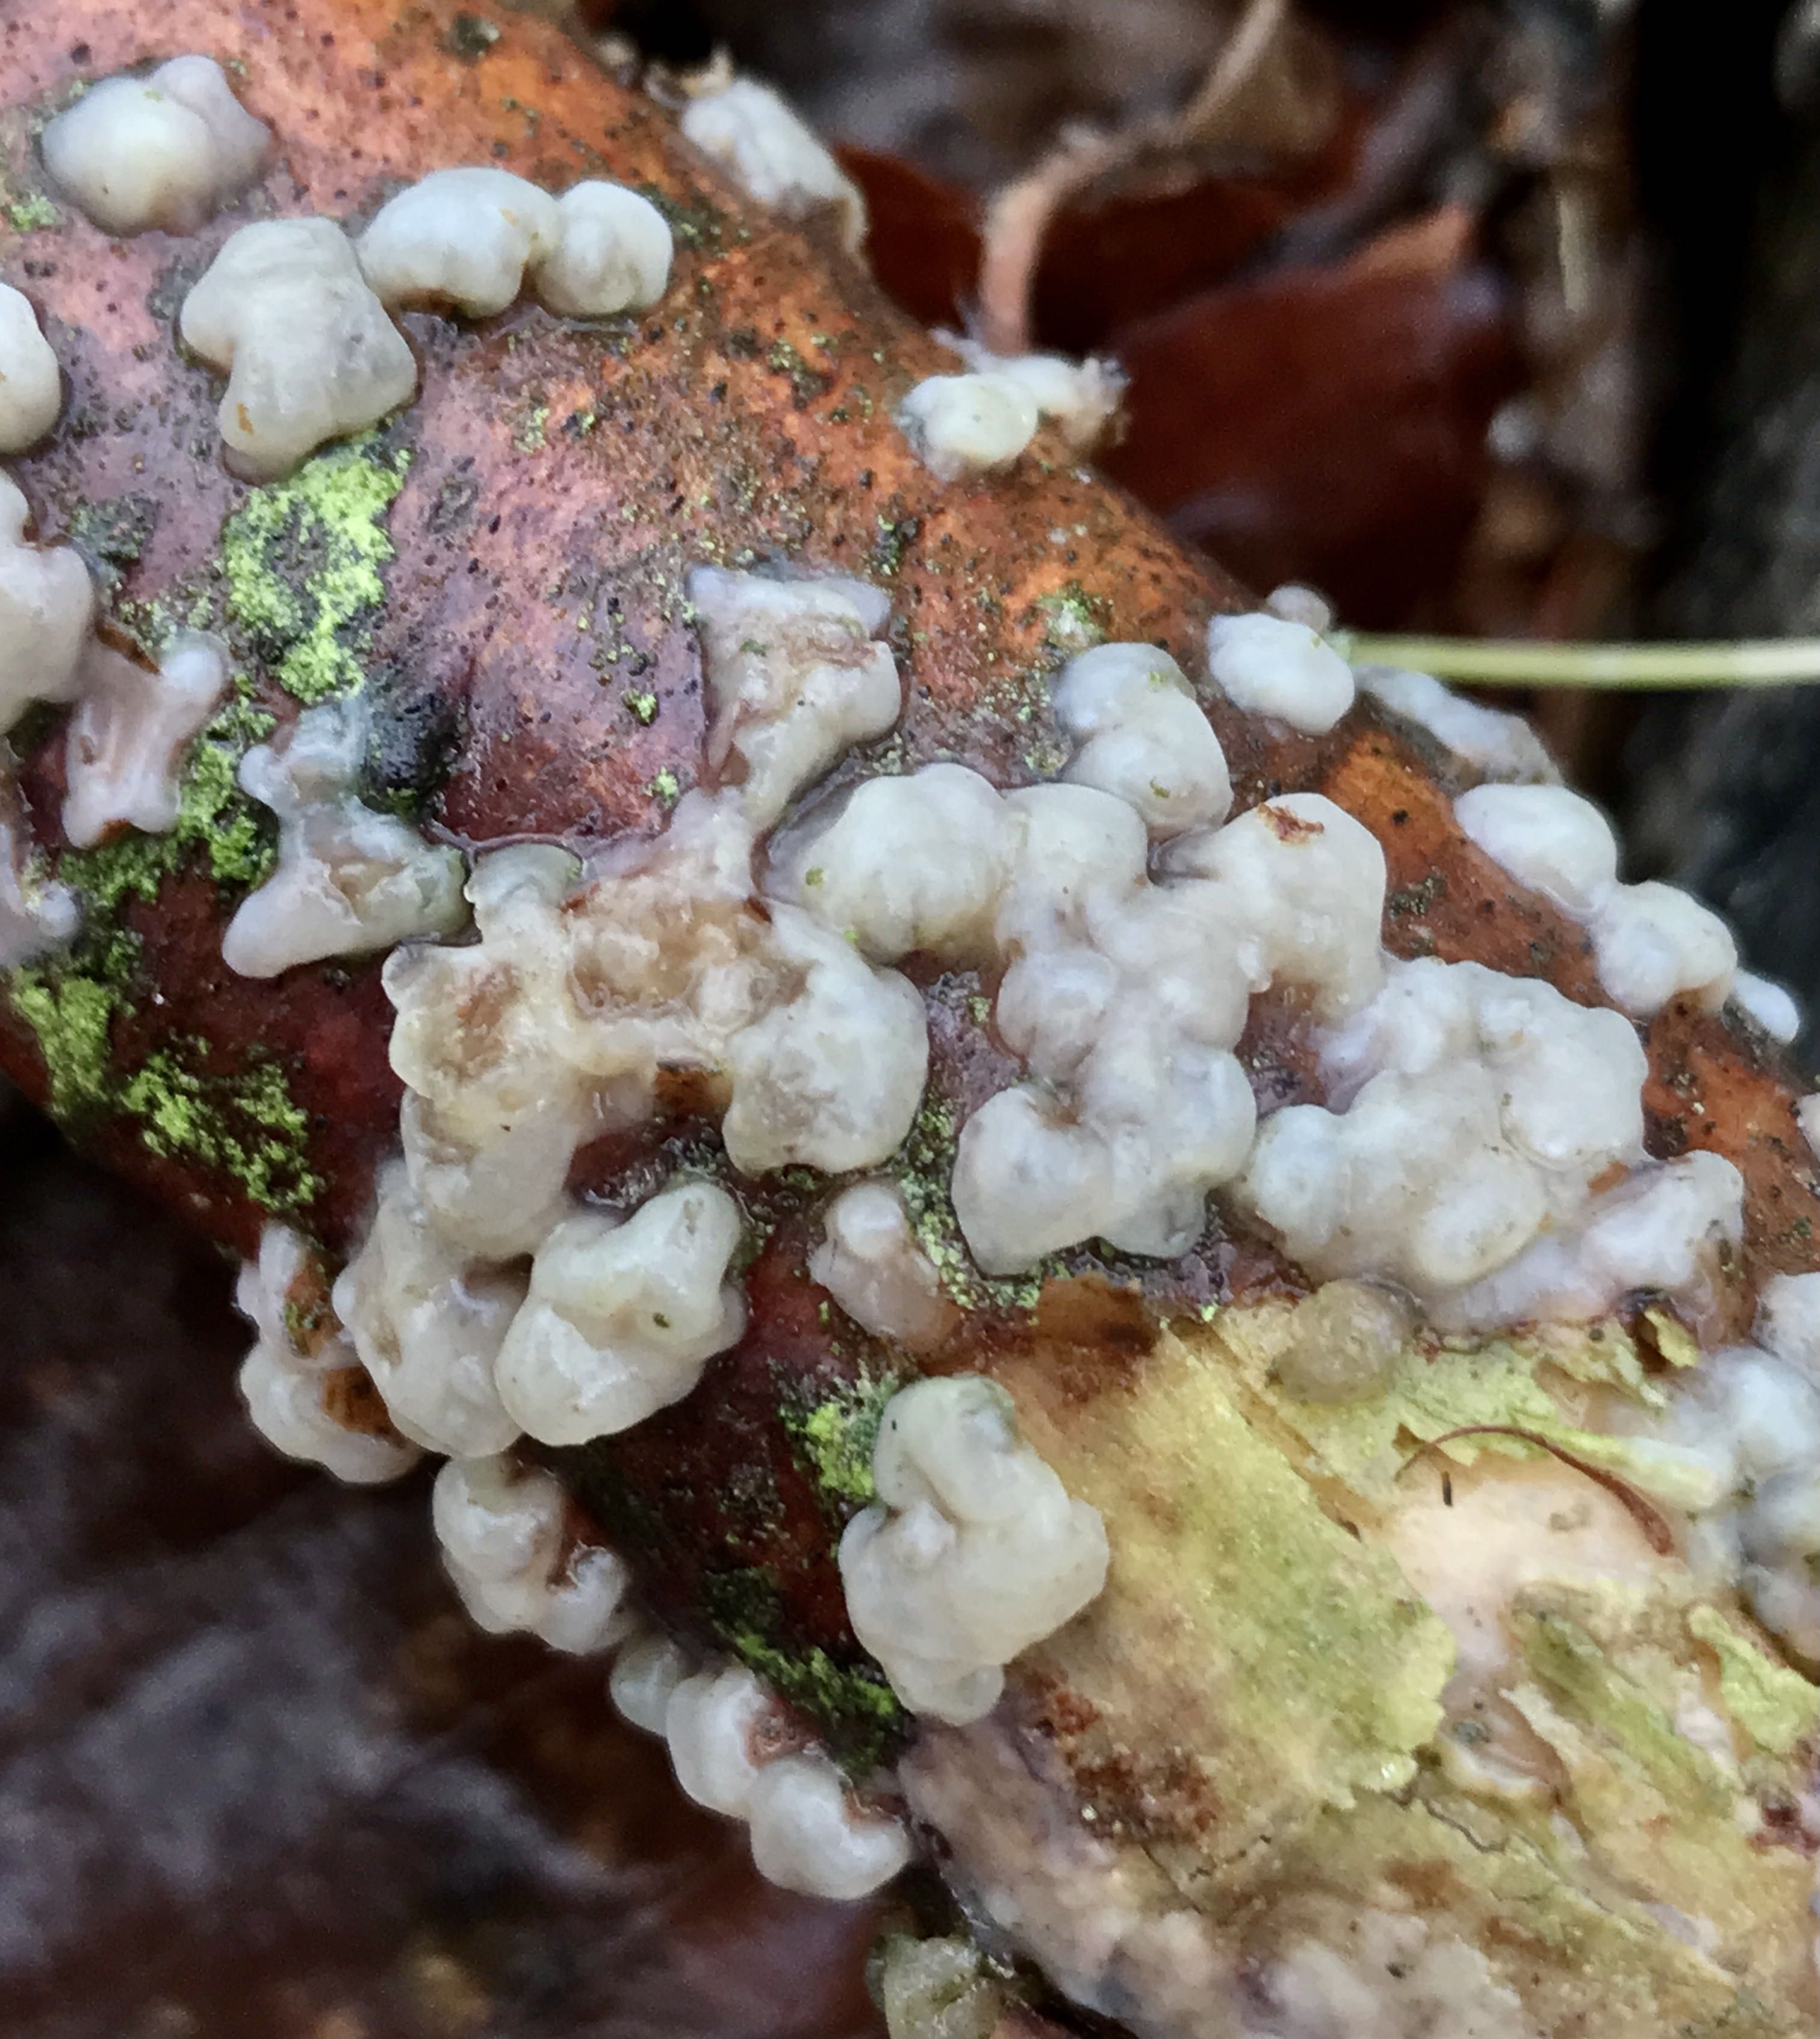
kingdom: Fungi
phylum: Basidiomycota
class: Agaricomycetes
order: Auriculariales
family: Auriculariaceae
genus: Exidia
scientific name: Exidia thuretiana
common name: hvidlig bævretop
